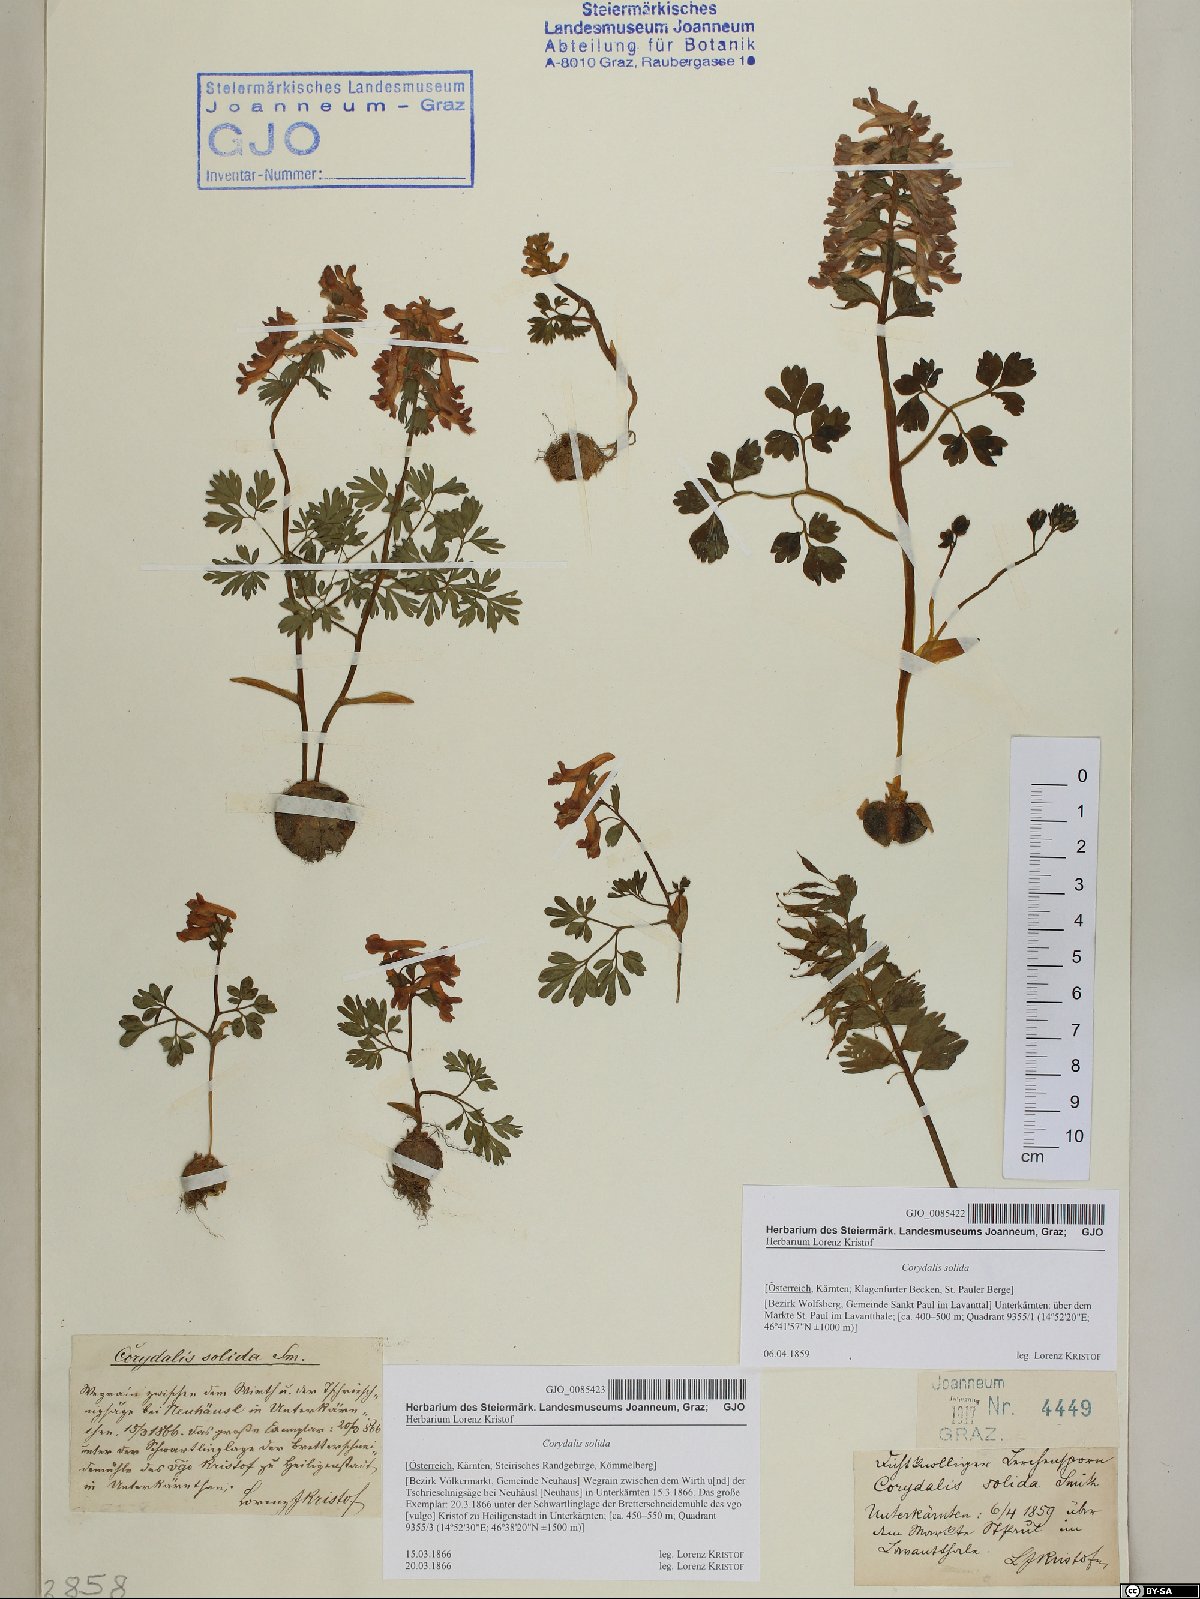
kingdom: Plantae
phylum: Tracheophyta
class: Magnoliopsida
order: Ranunculales
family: Papaveraceae
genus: Corydalis
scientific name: Corydalis solida
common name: Bird-in-a-bush
